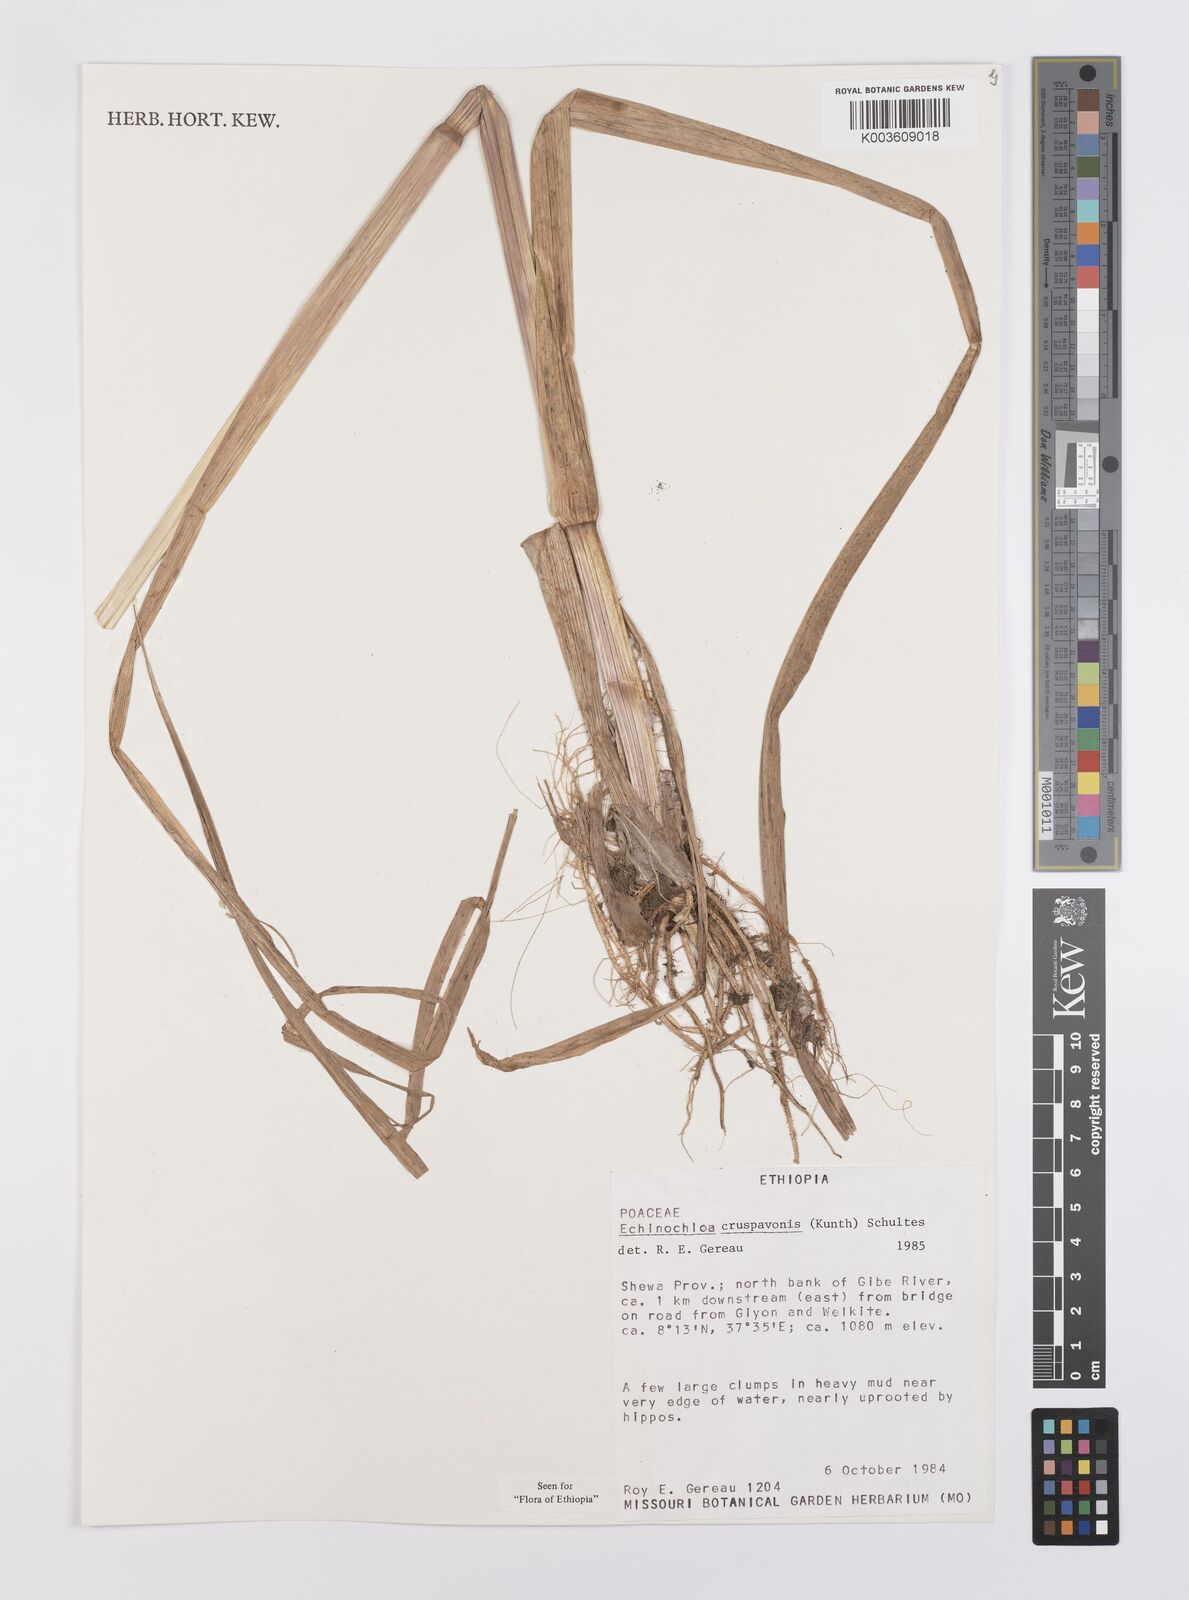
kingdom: Plantae
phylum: Tracheophyta
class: Liliopsida
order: Poales
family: Poaceae
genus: Echinochloa
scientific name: Echinochloa crus-pavonis
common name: Gulf cockspur grass
